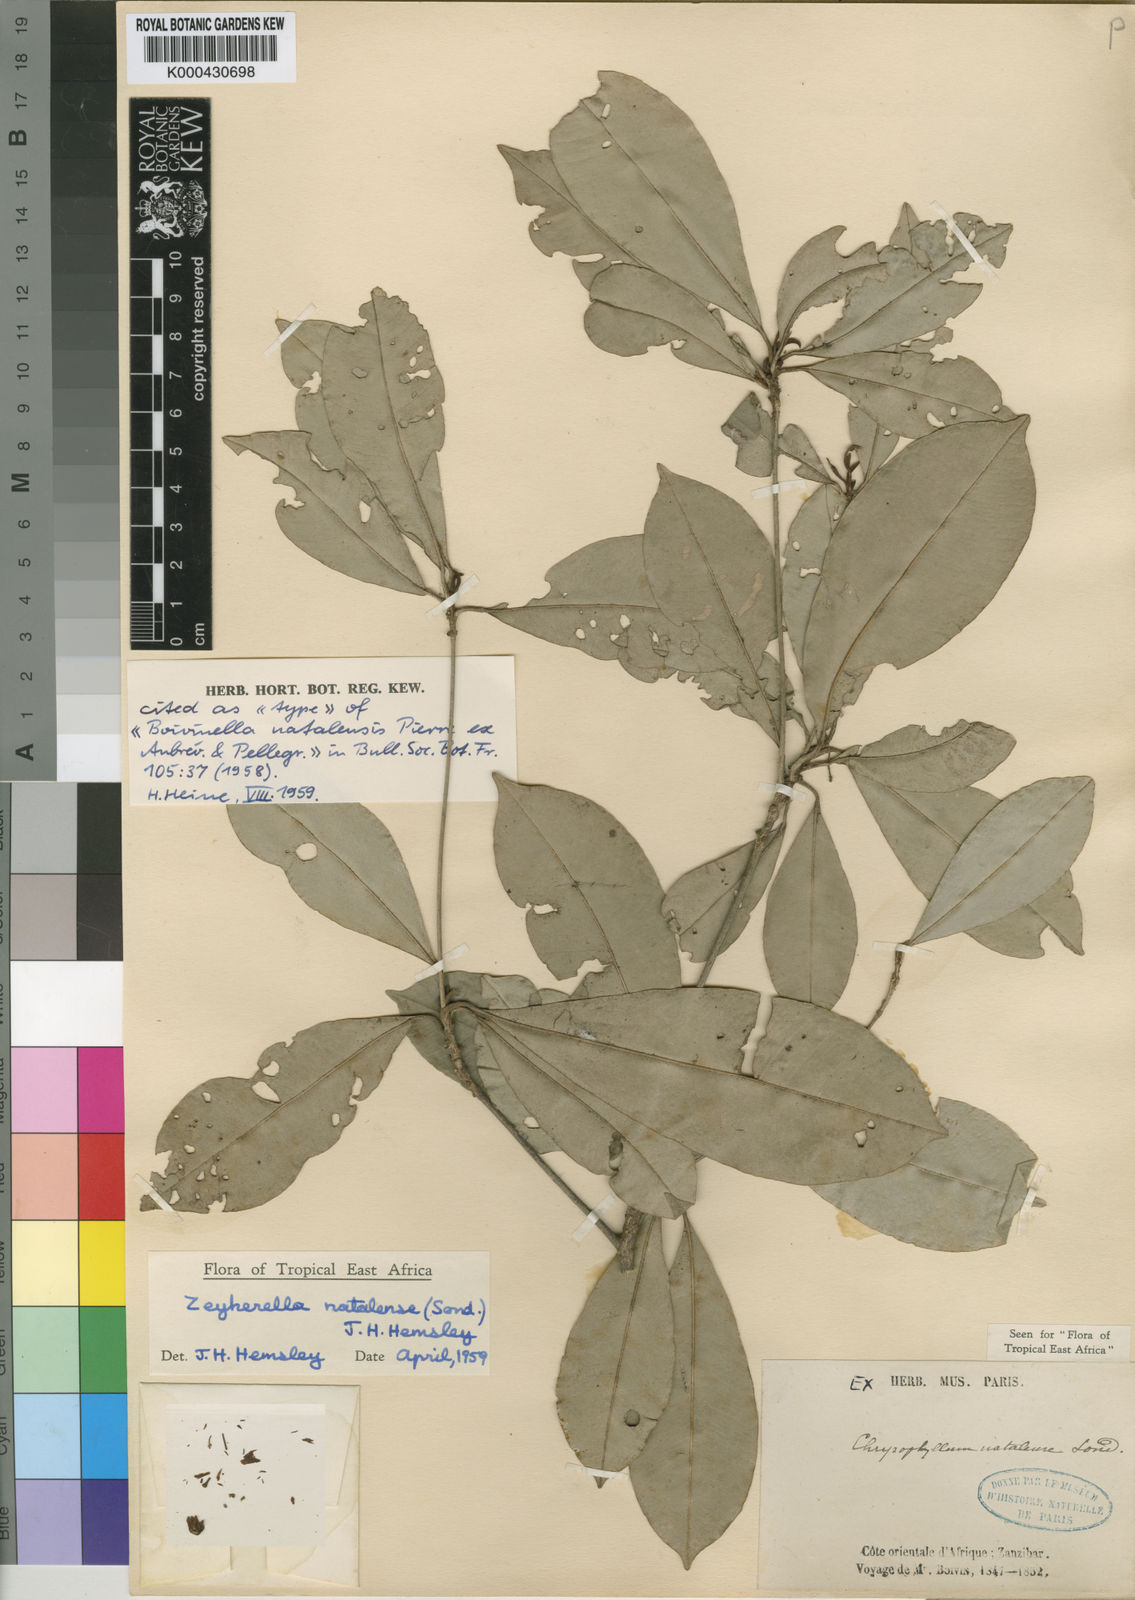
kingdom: Plantae
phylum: Tracheophyta
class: Magnoliopsida
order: Ericales
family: Sapotaceae
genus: Englerophytum
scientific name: Englerophytum natalense
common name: Silver-leaved milkplum
